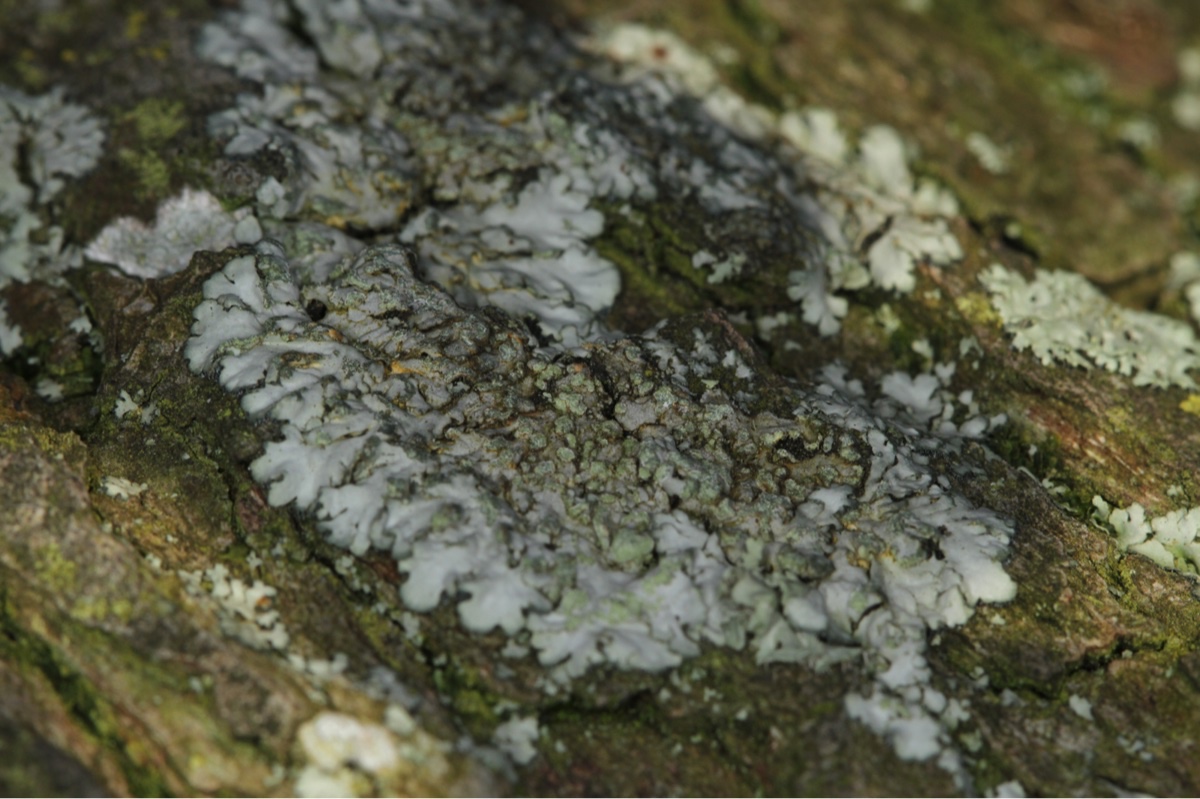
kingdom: Fungi
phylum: Ascomycota
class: Lecanoromycetes
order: Caliciales
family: Physciaceae
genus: Phaeophyscia
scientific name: Phaeophyscia orbicularis
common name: grågrøn rosetlav
